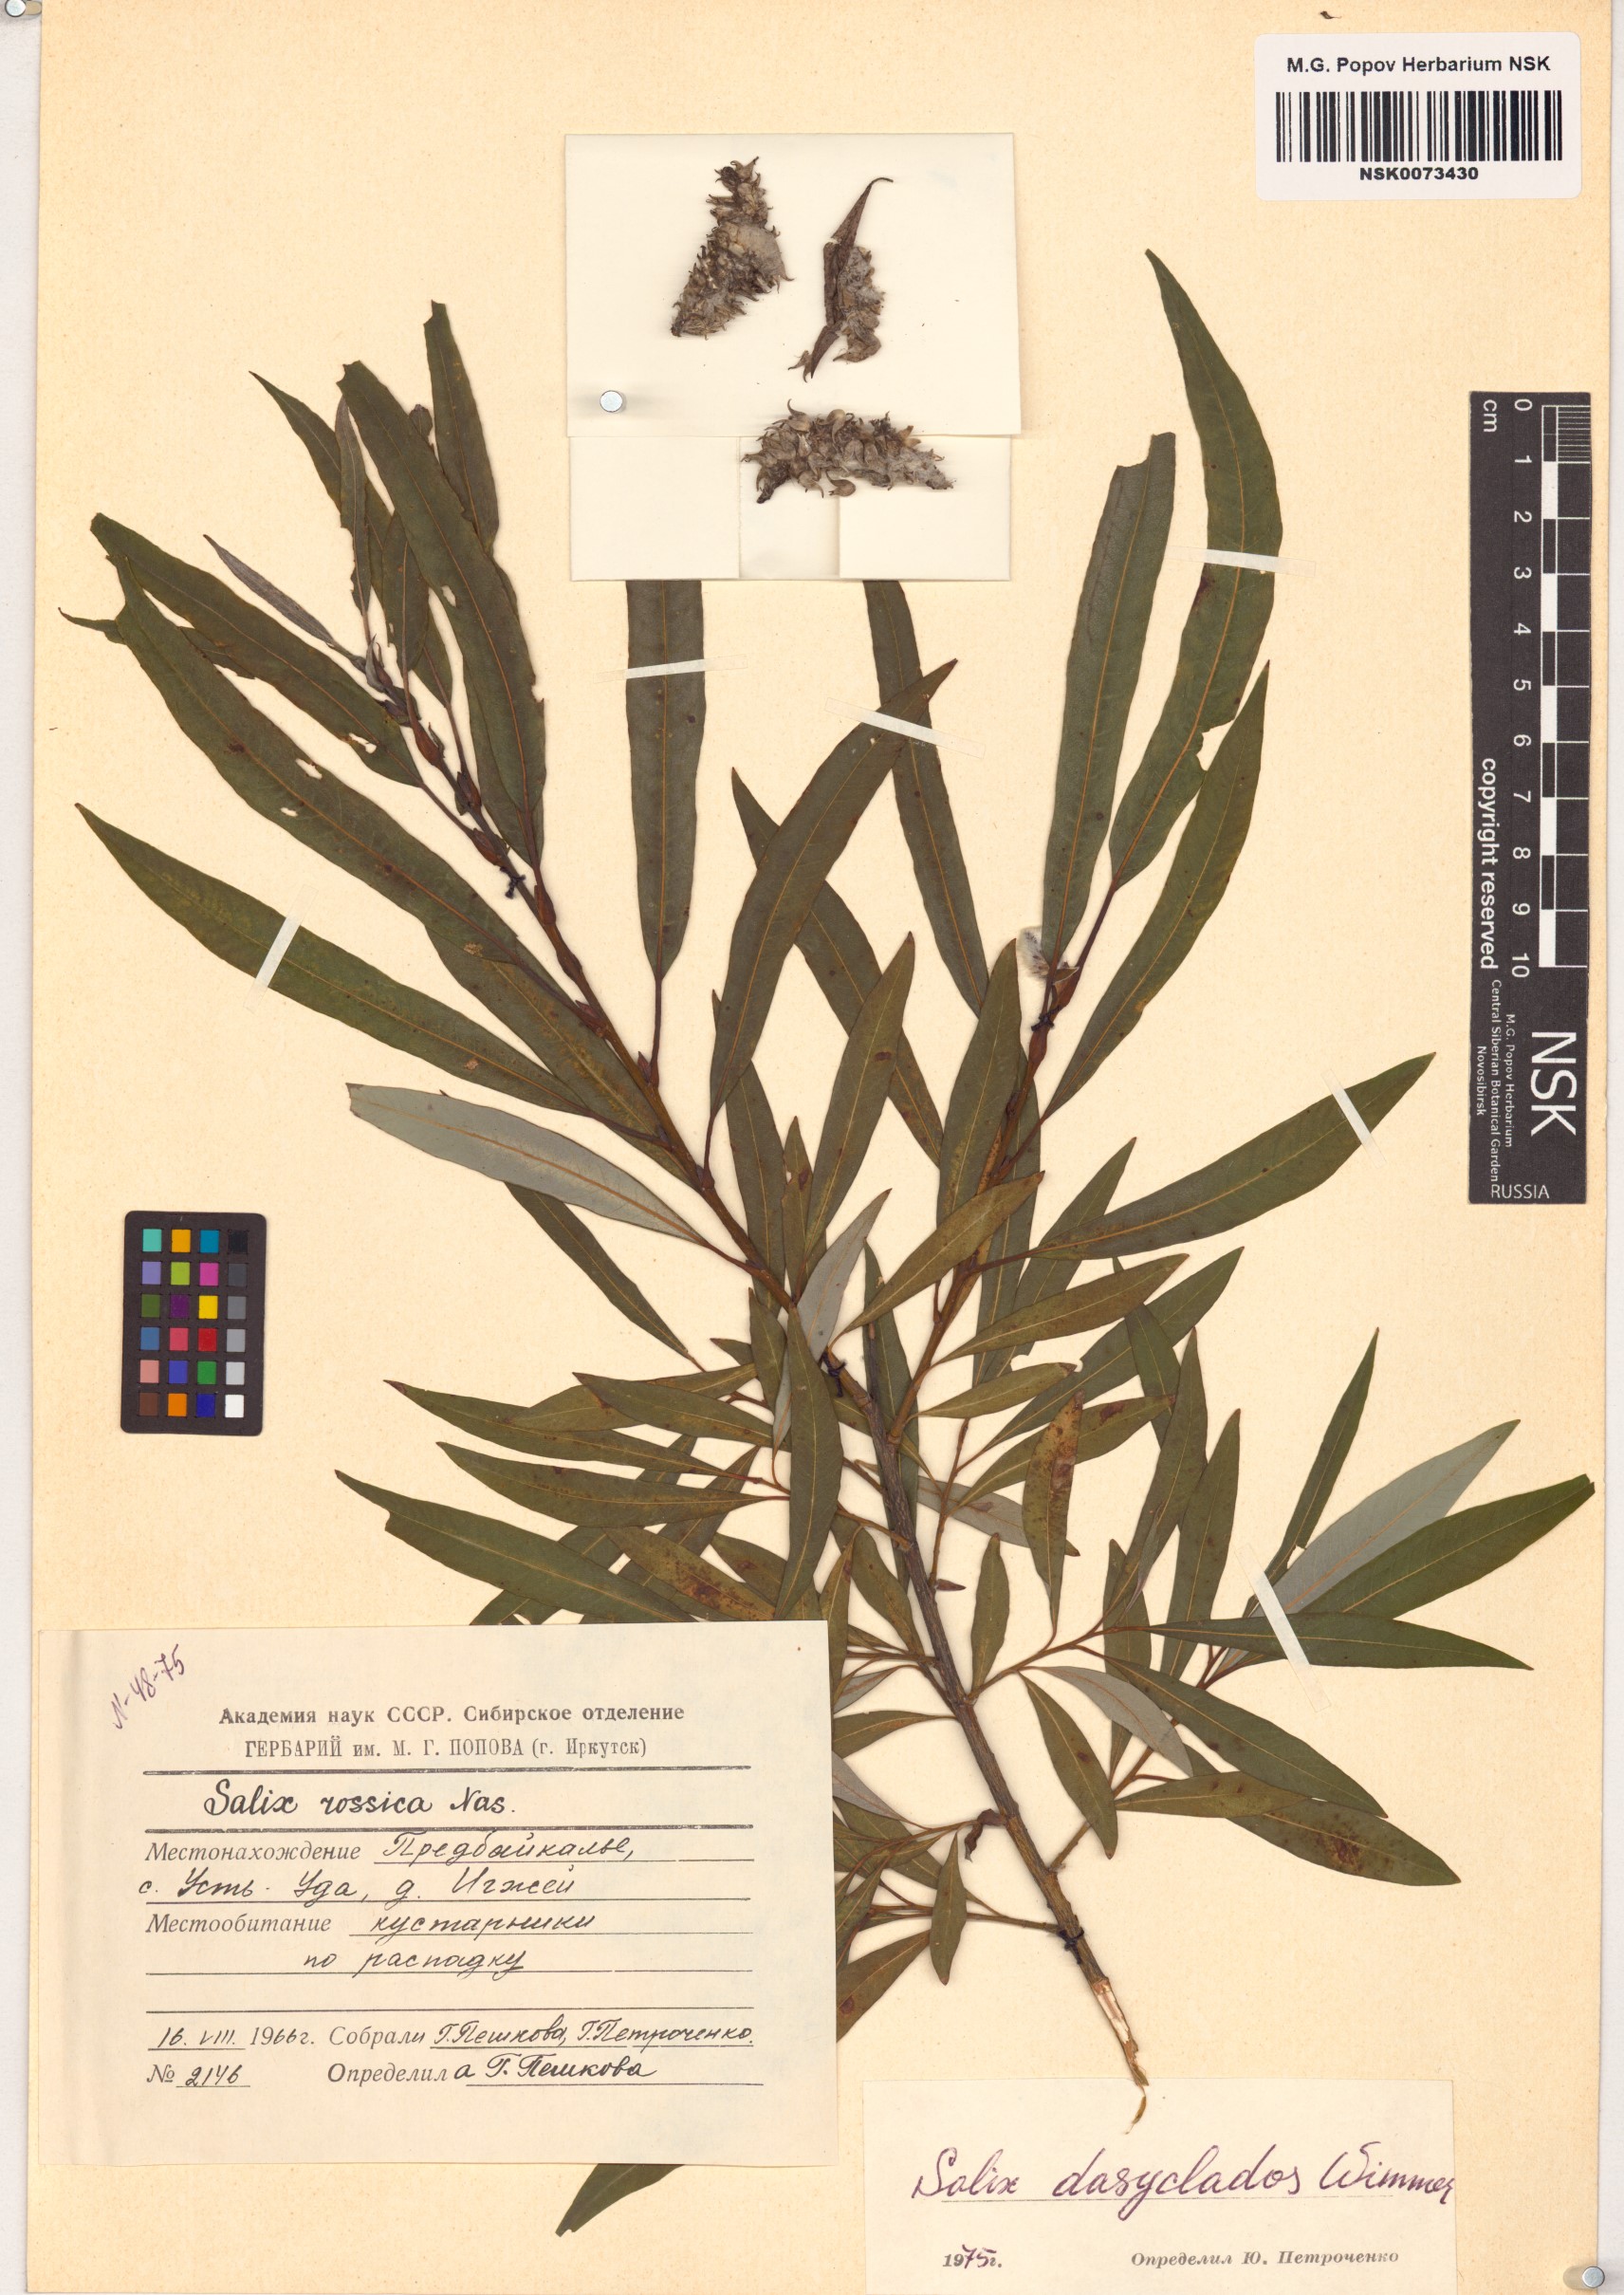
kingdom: Plantae
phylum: Tracheophyta
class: Magnoliopsida
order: Malpighiales
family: Salicaceae
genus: Salix
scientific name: Salix gmelinii
